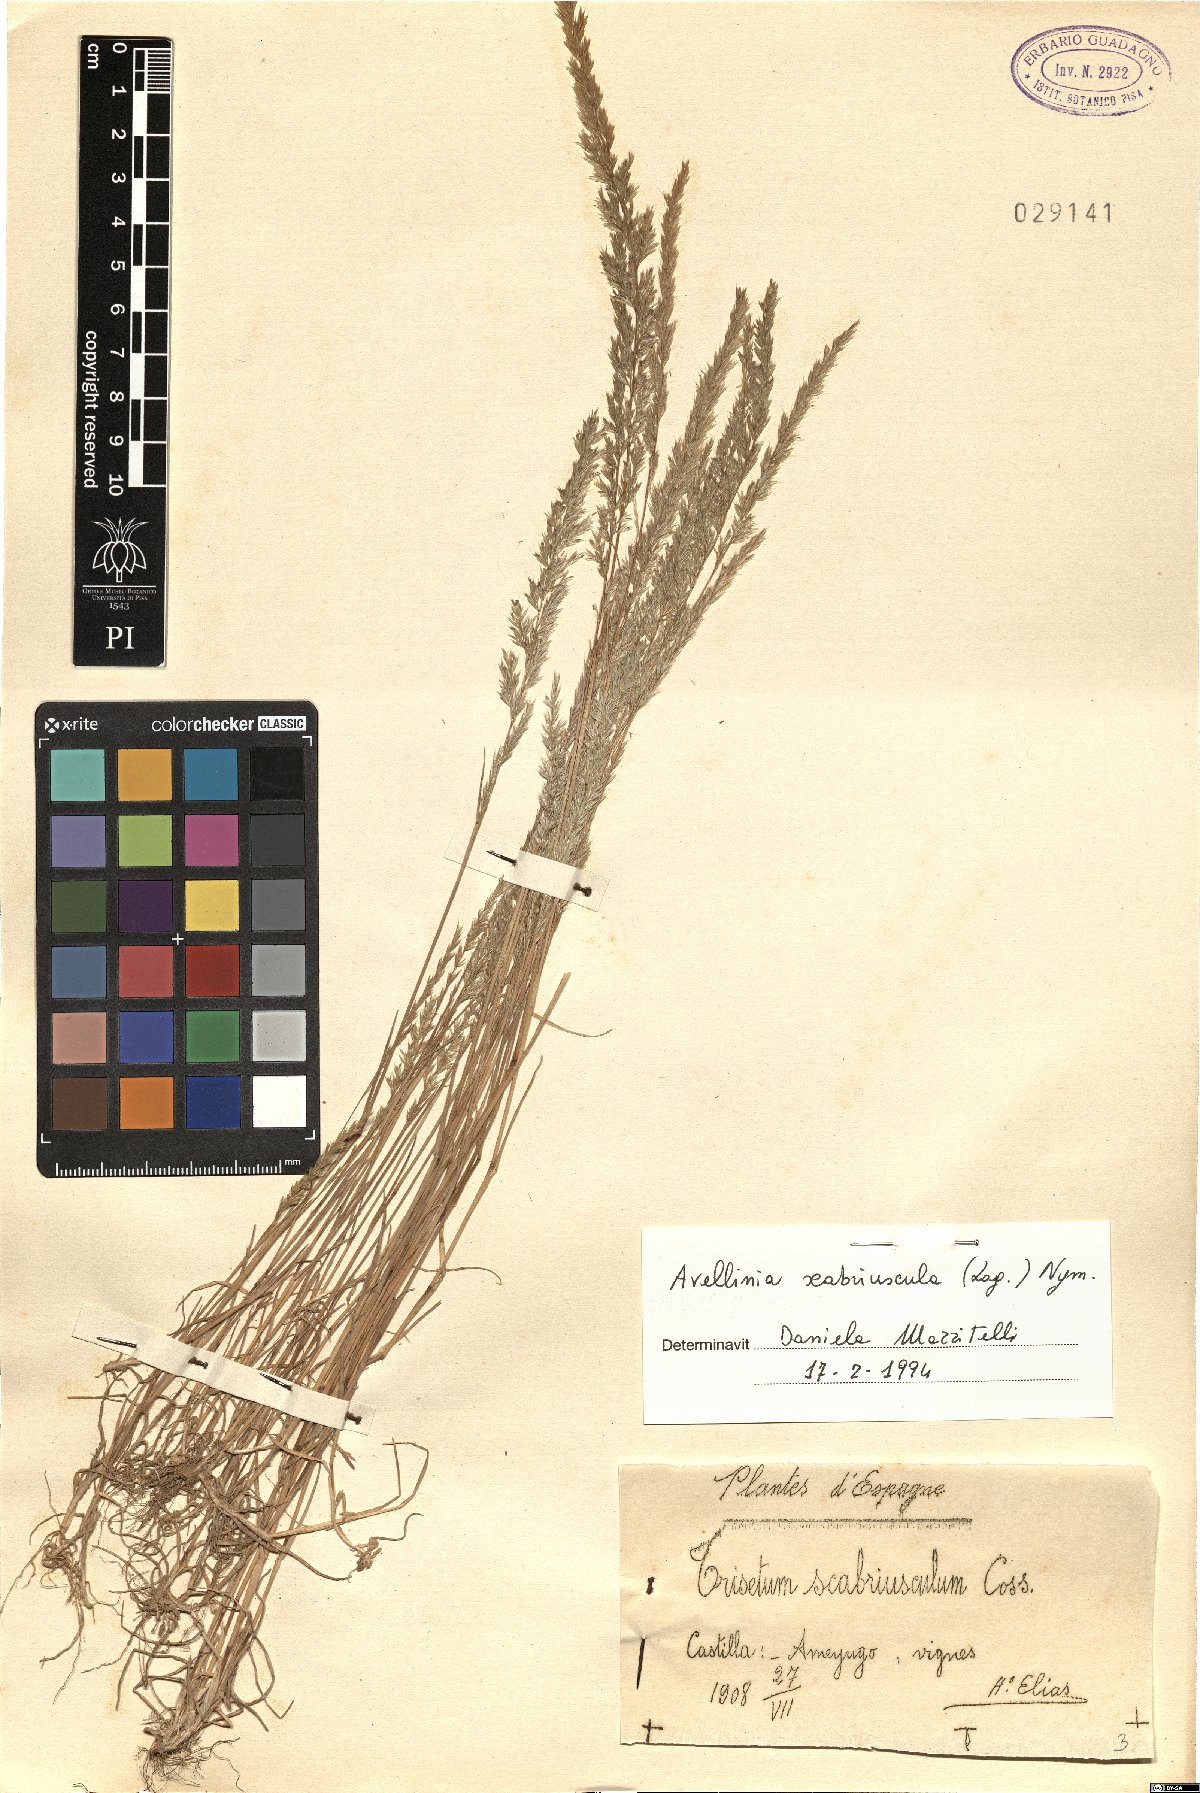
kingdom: Plantae
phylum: Tracheophyta
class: Liliopsida
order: Poales
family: Poaceae
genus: Trisetaria
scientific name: Trisetaria scabriuscula
